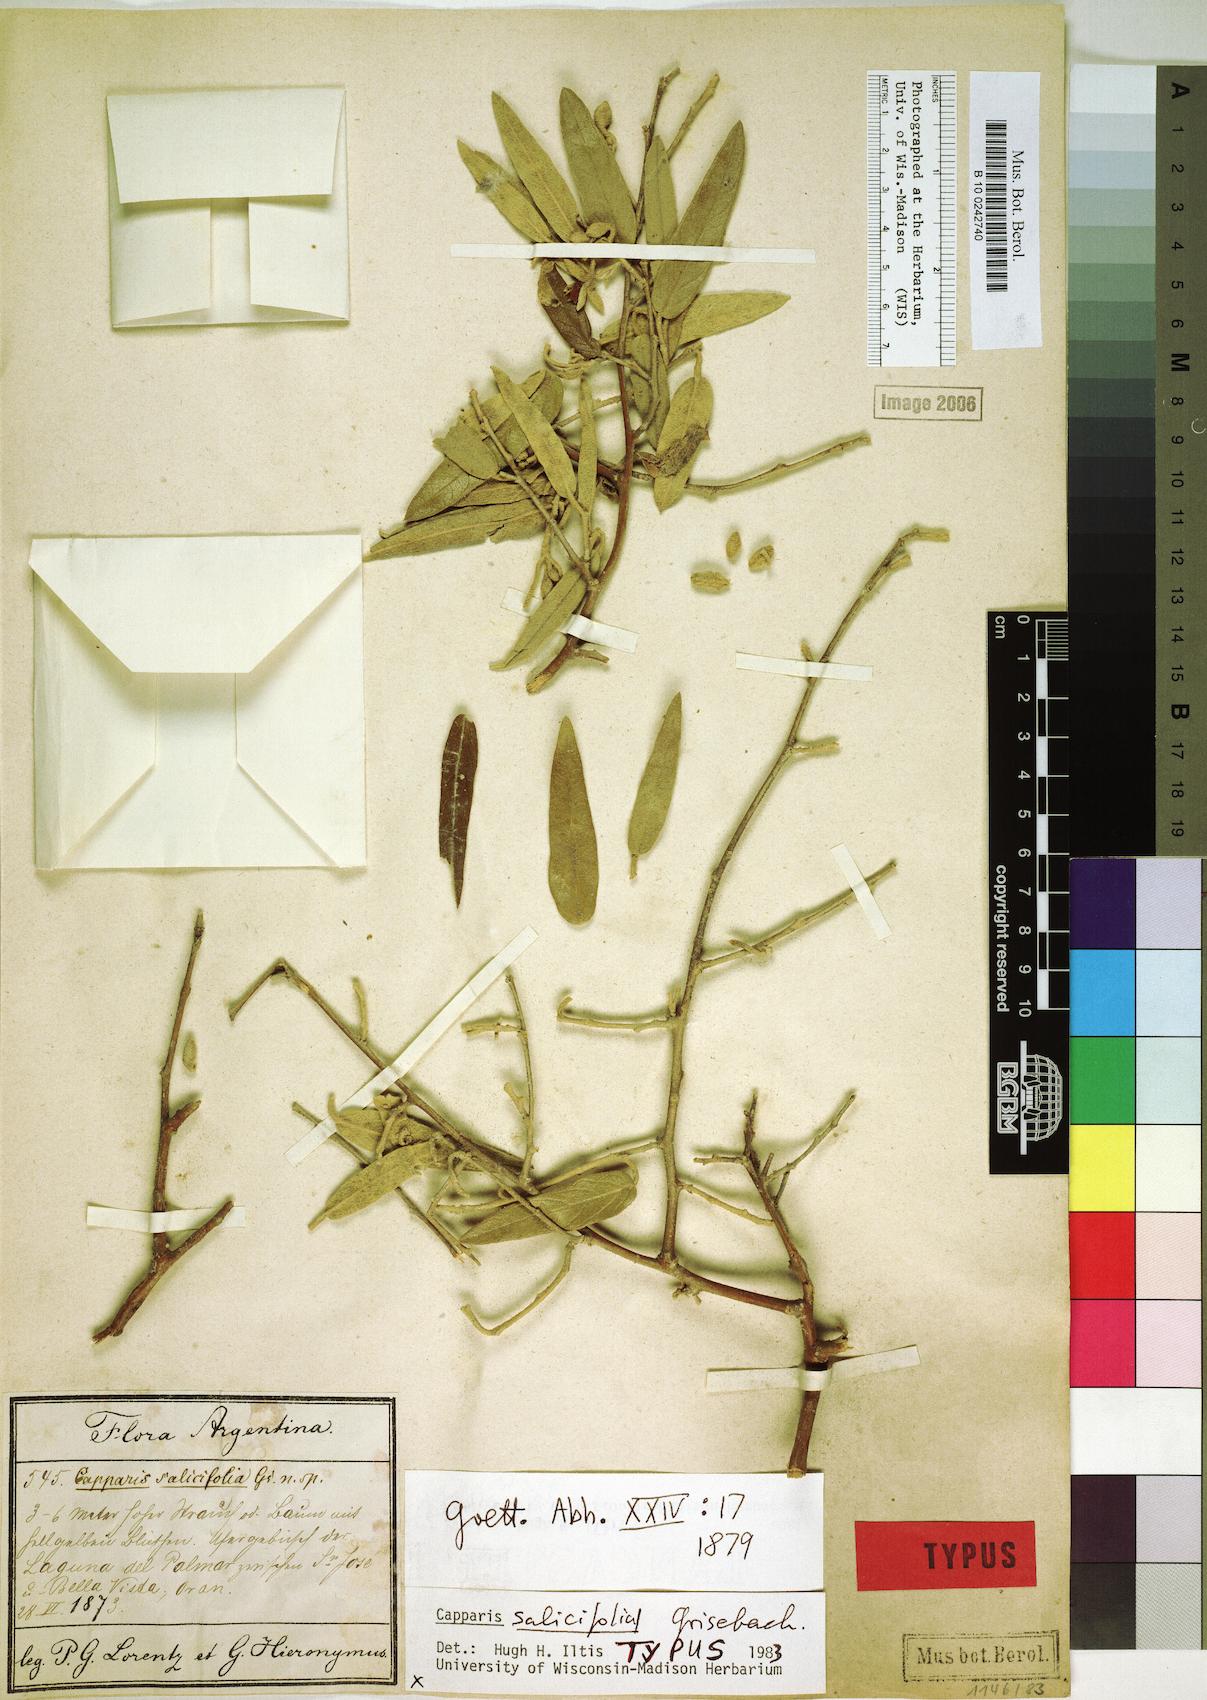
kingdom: Plantae
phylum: Tracheophyta
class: Magnoliopsida
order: Brassicales
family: Capparaceae
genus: Sarcotoxicum
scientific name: Sarcotoxicum salicifolium
